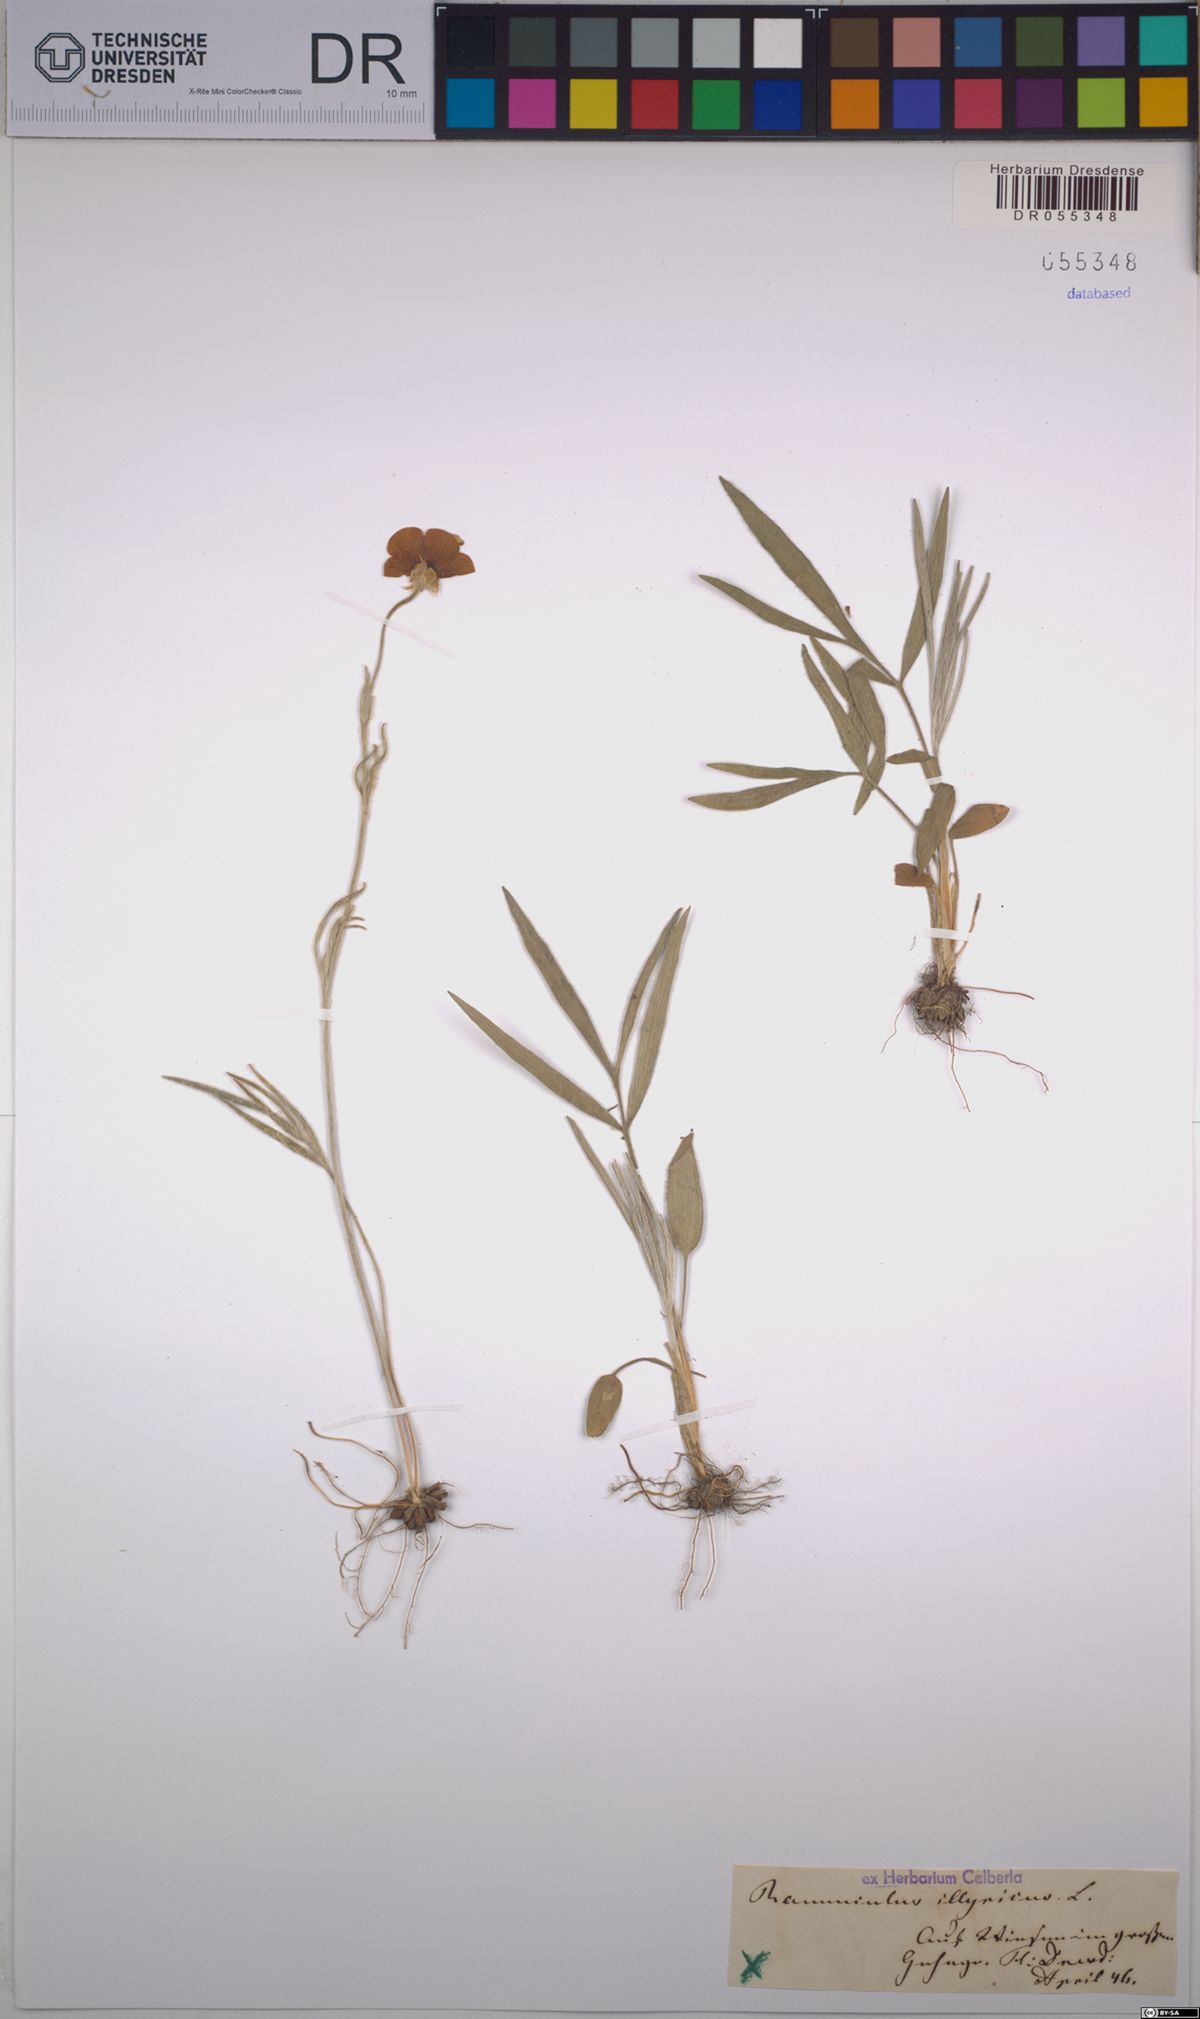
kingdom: Plantae
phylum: Tracheophyta
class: Magnoliopsida
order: Ranunculales
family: Ranunculaceae
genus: Ranunculus
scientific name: Ranunculus illyricus
